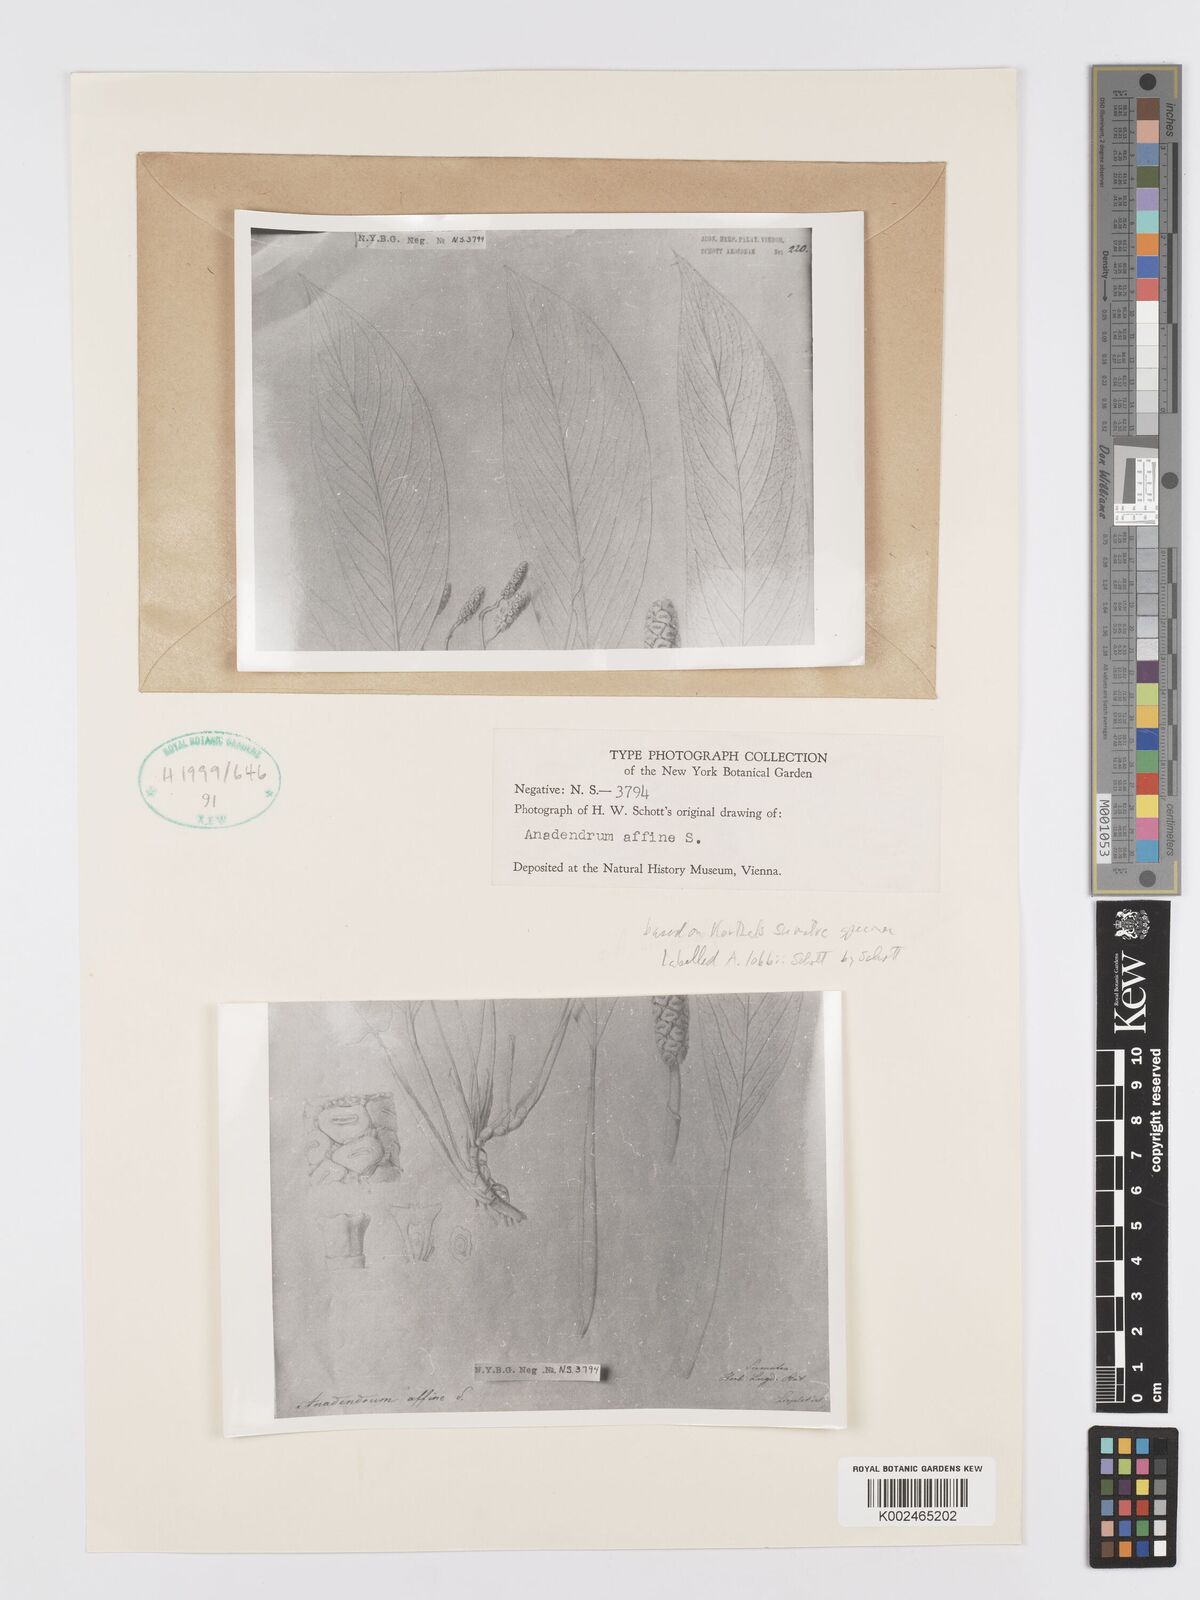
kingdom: Plantae
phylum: Tracheophyta
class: Liliopsida
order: Alismatales
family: Araceae
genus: Anadendrum
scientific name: Anadendrum affine
